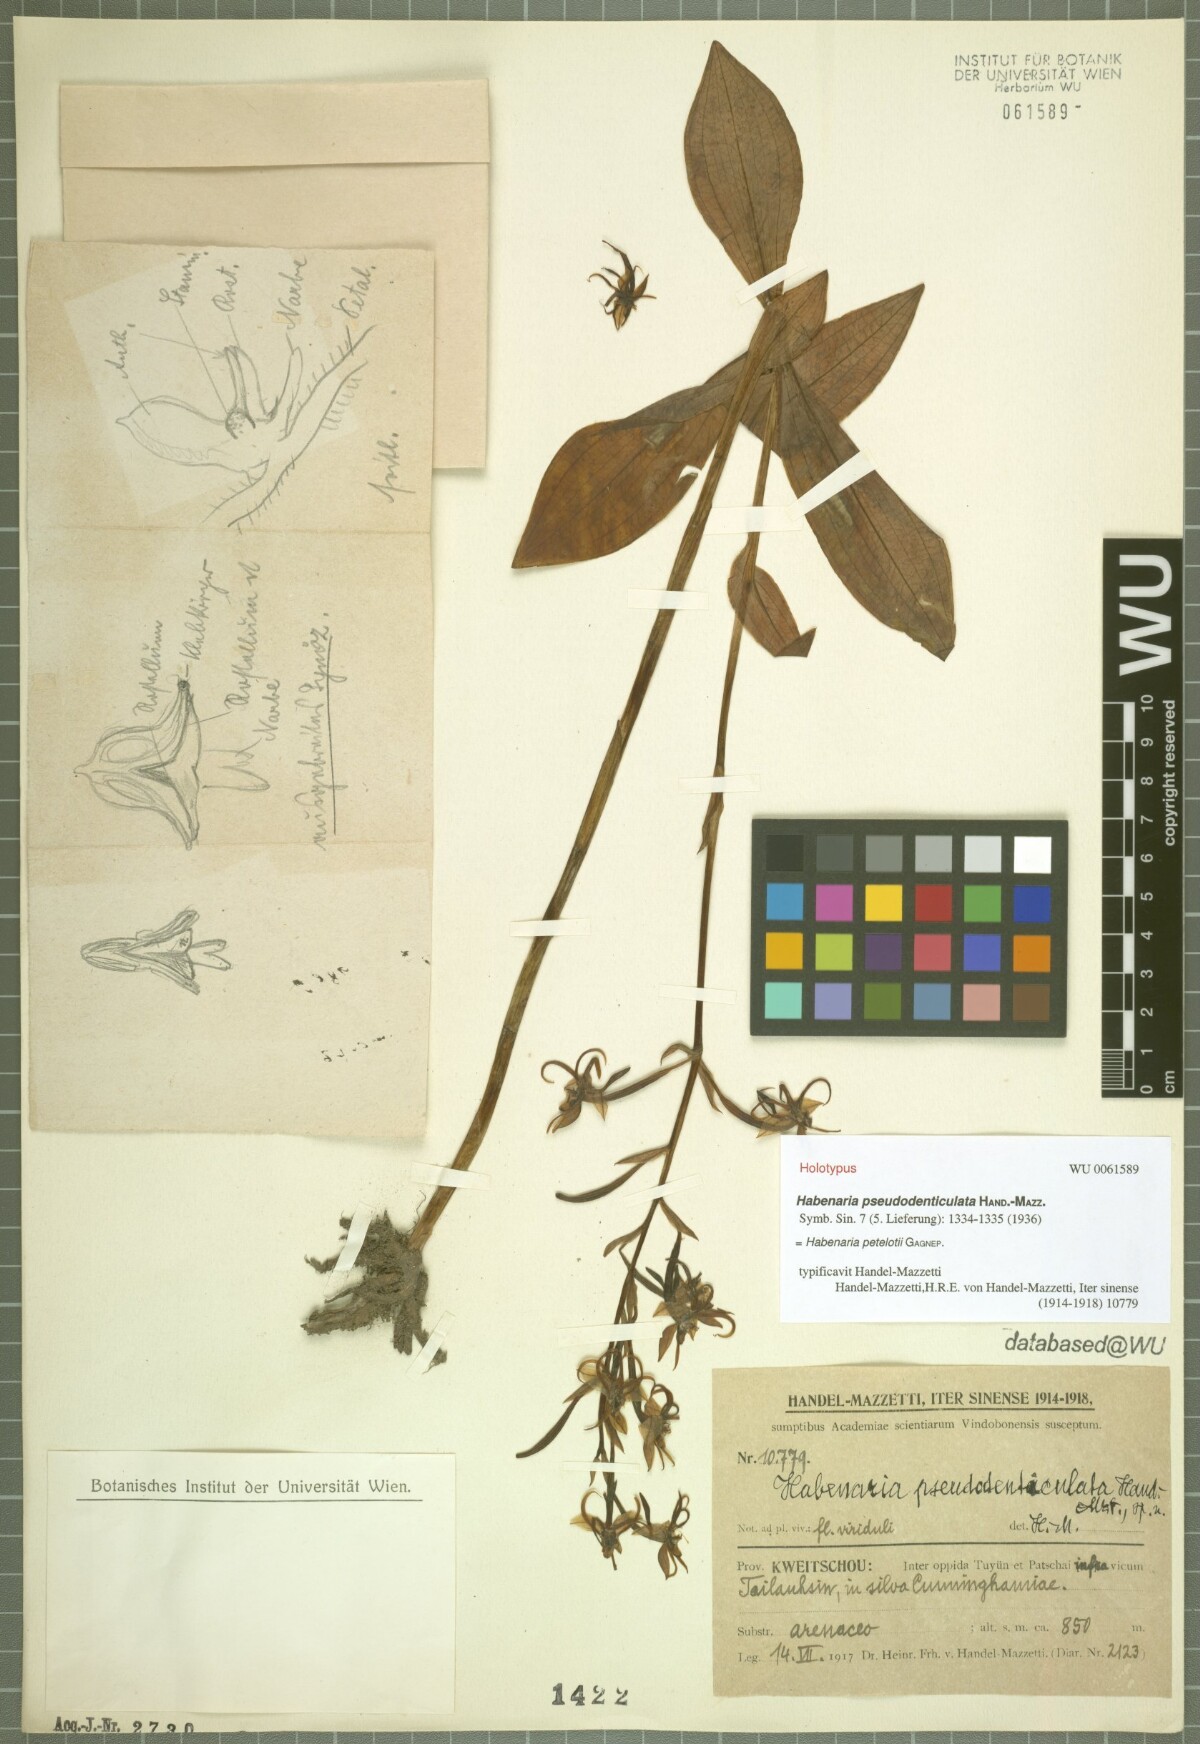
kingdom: Plantae
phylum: Tracheophyta
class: Liliopsida
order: Asparagales
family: Orchidaceae
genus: Habenaria
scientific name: Habenaria petelotii
